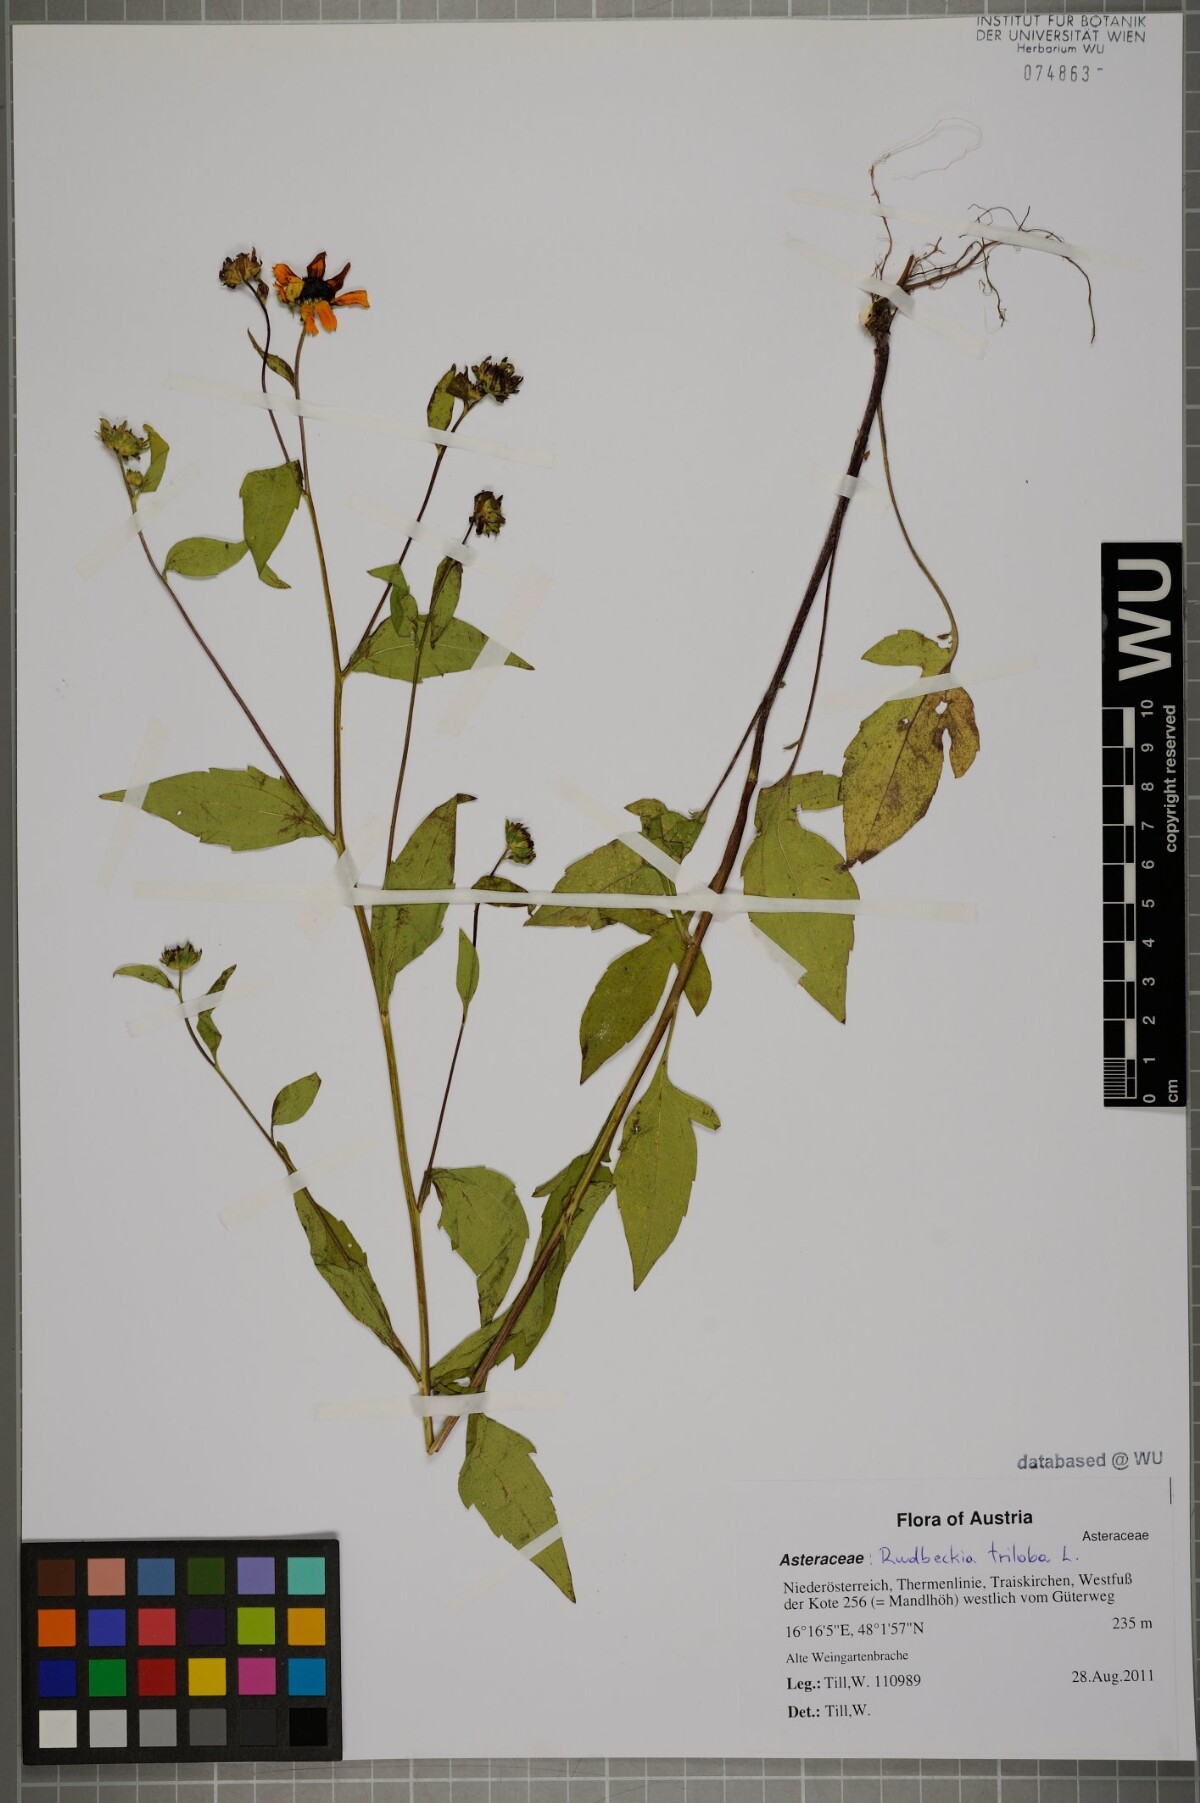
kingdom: Plantae
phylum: Tracheophyta
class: Magnoliopsida
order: Asterales
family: Asteraceae
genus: Rudbeckia
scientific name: Rudbeckia triloba
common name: Thin-leaved coneflower
